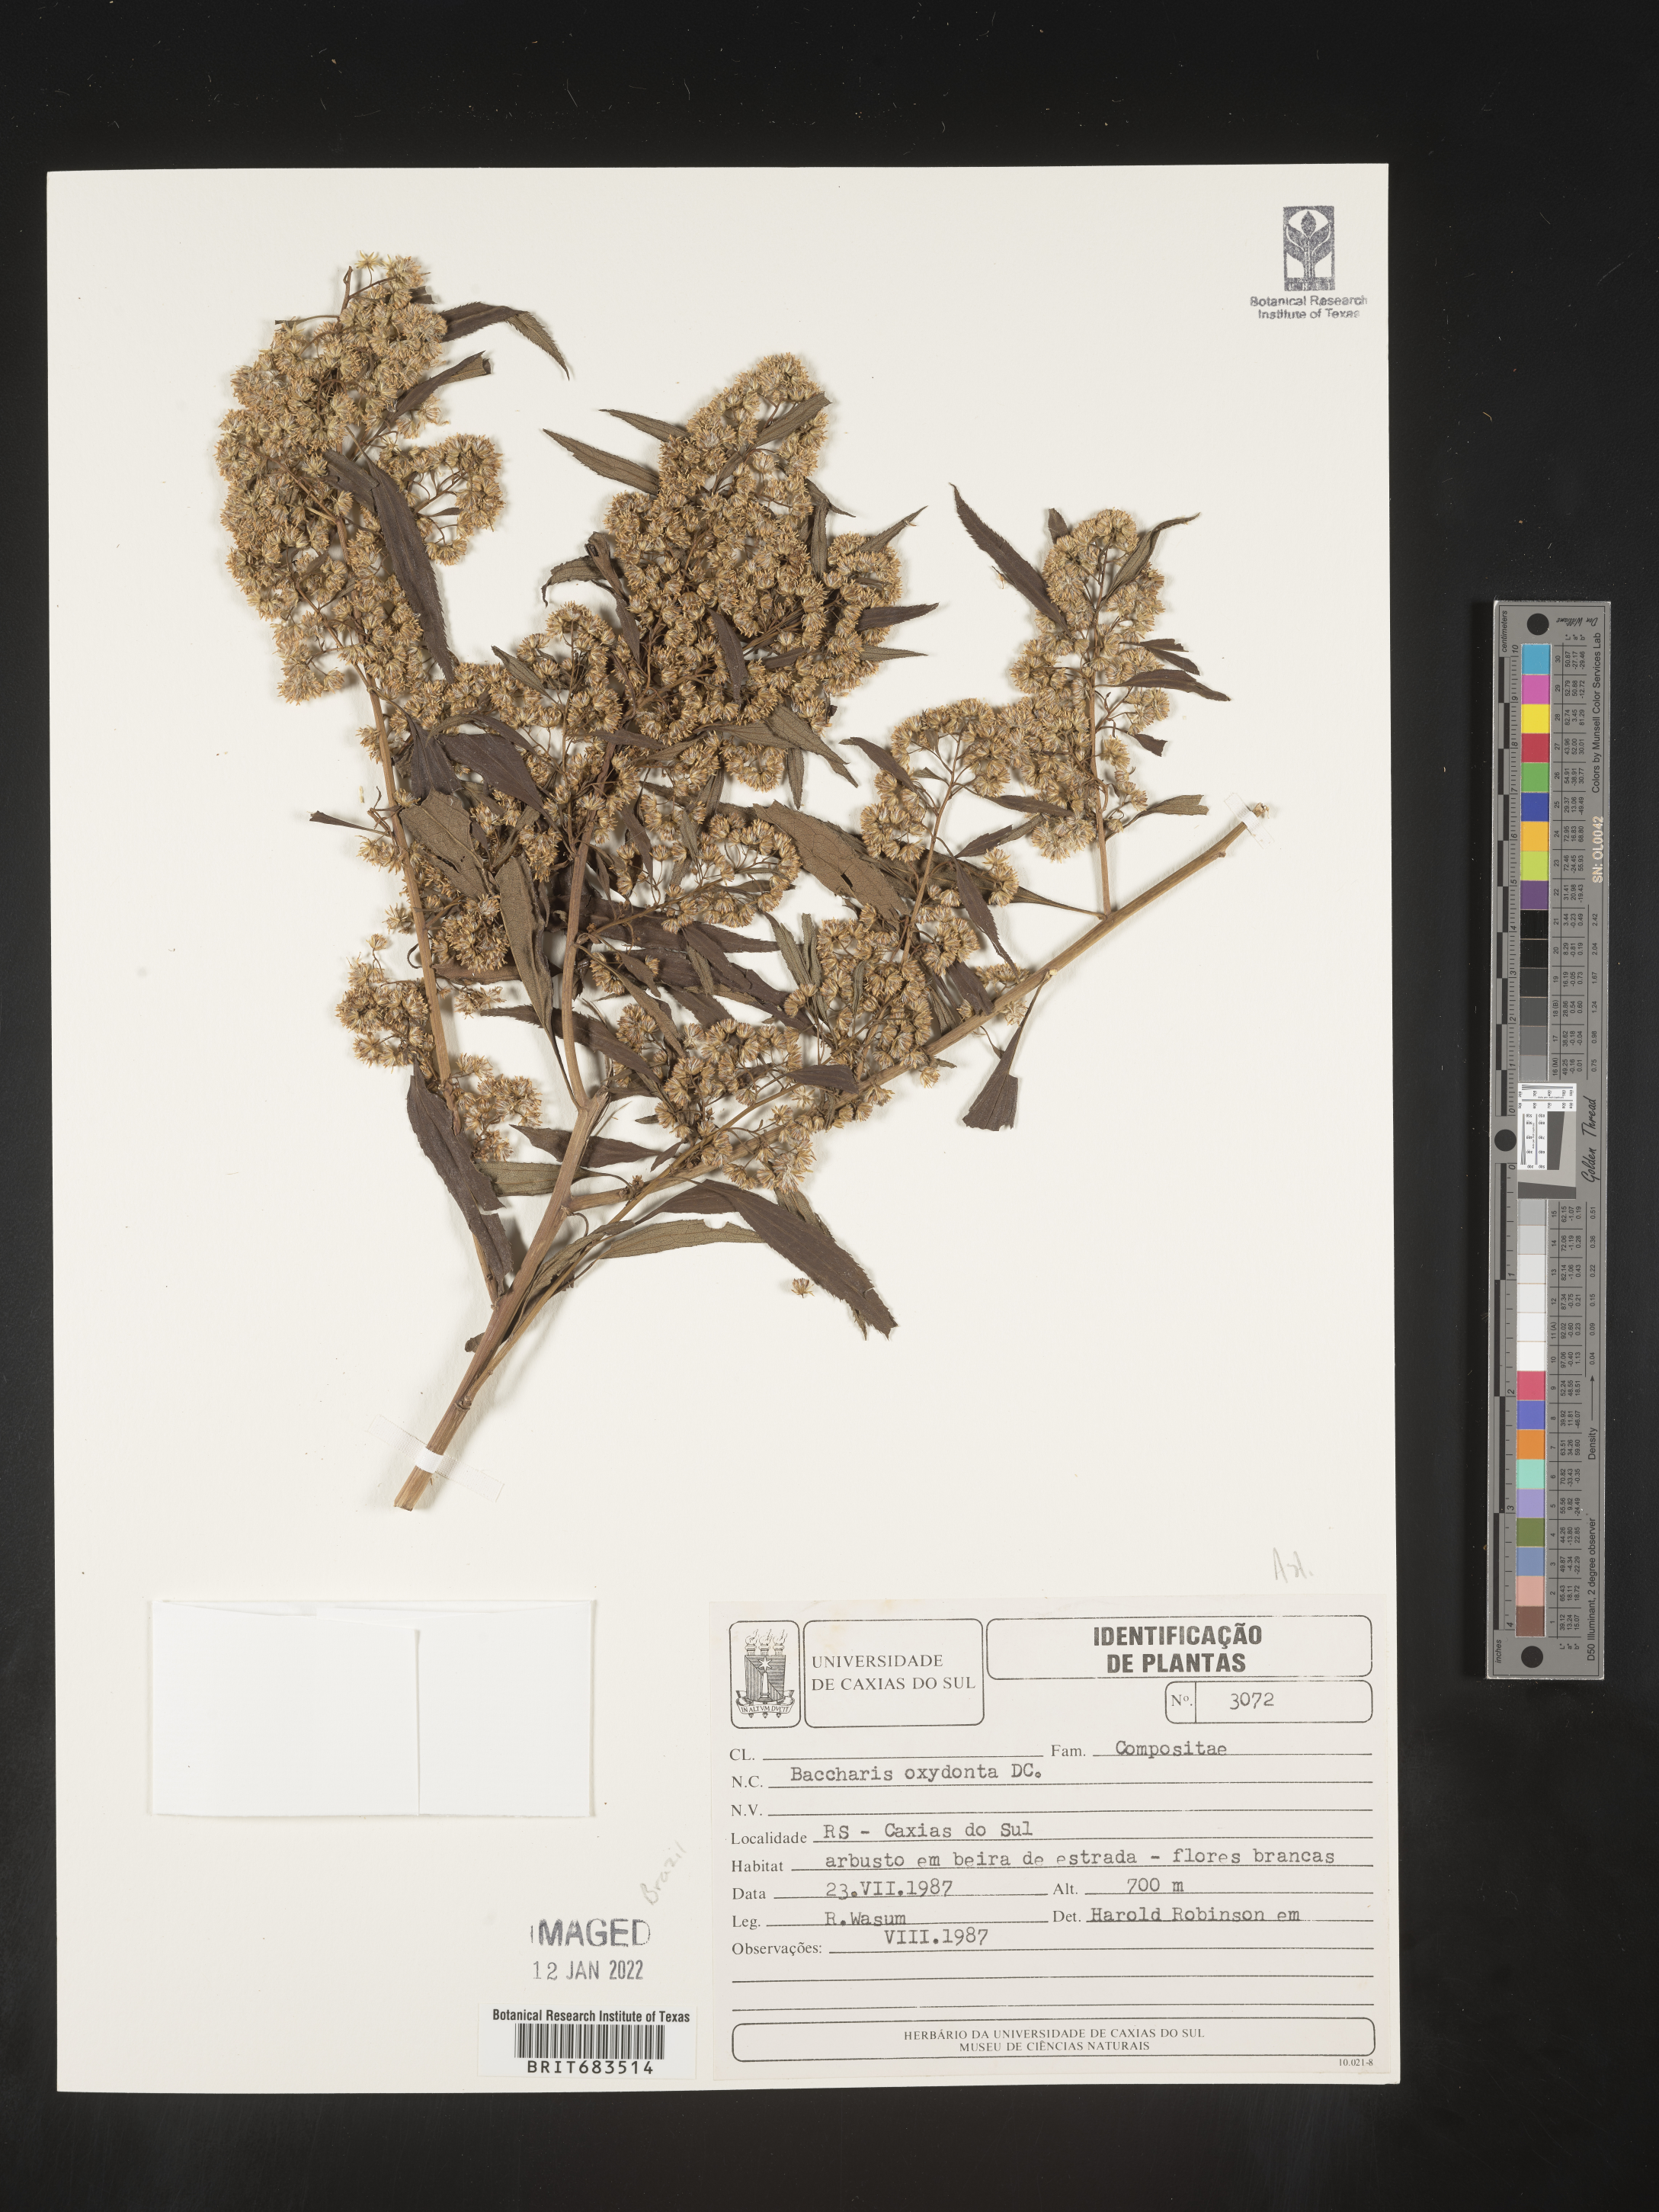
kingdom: Plantae
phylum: Tracheophyta
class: Magnoliopsida
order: Asterales
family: Asteraceae
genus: Baccharis
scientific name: Baccharis
